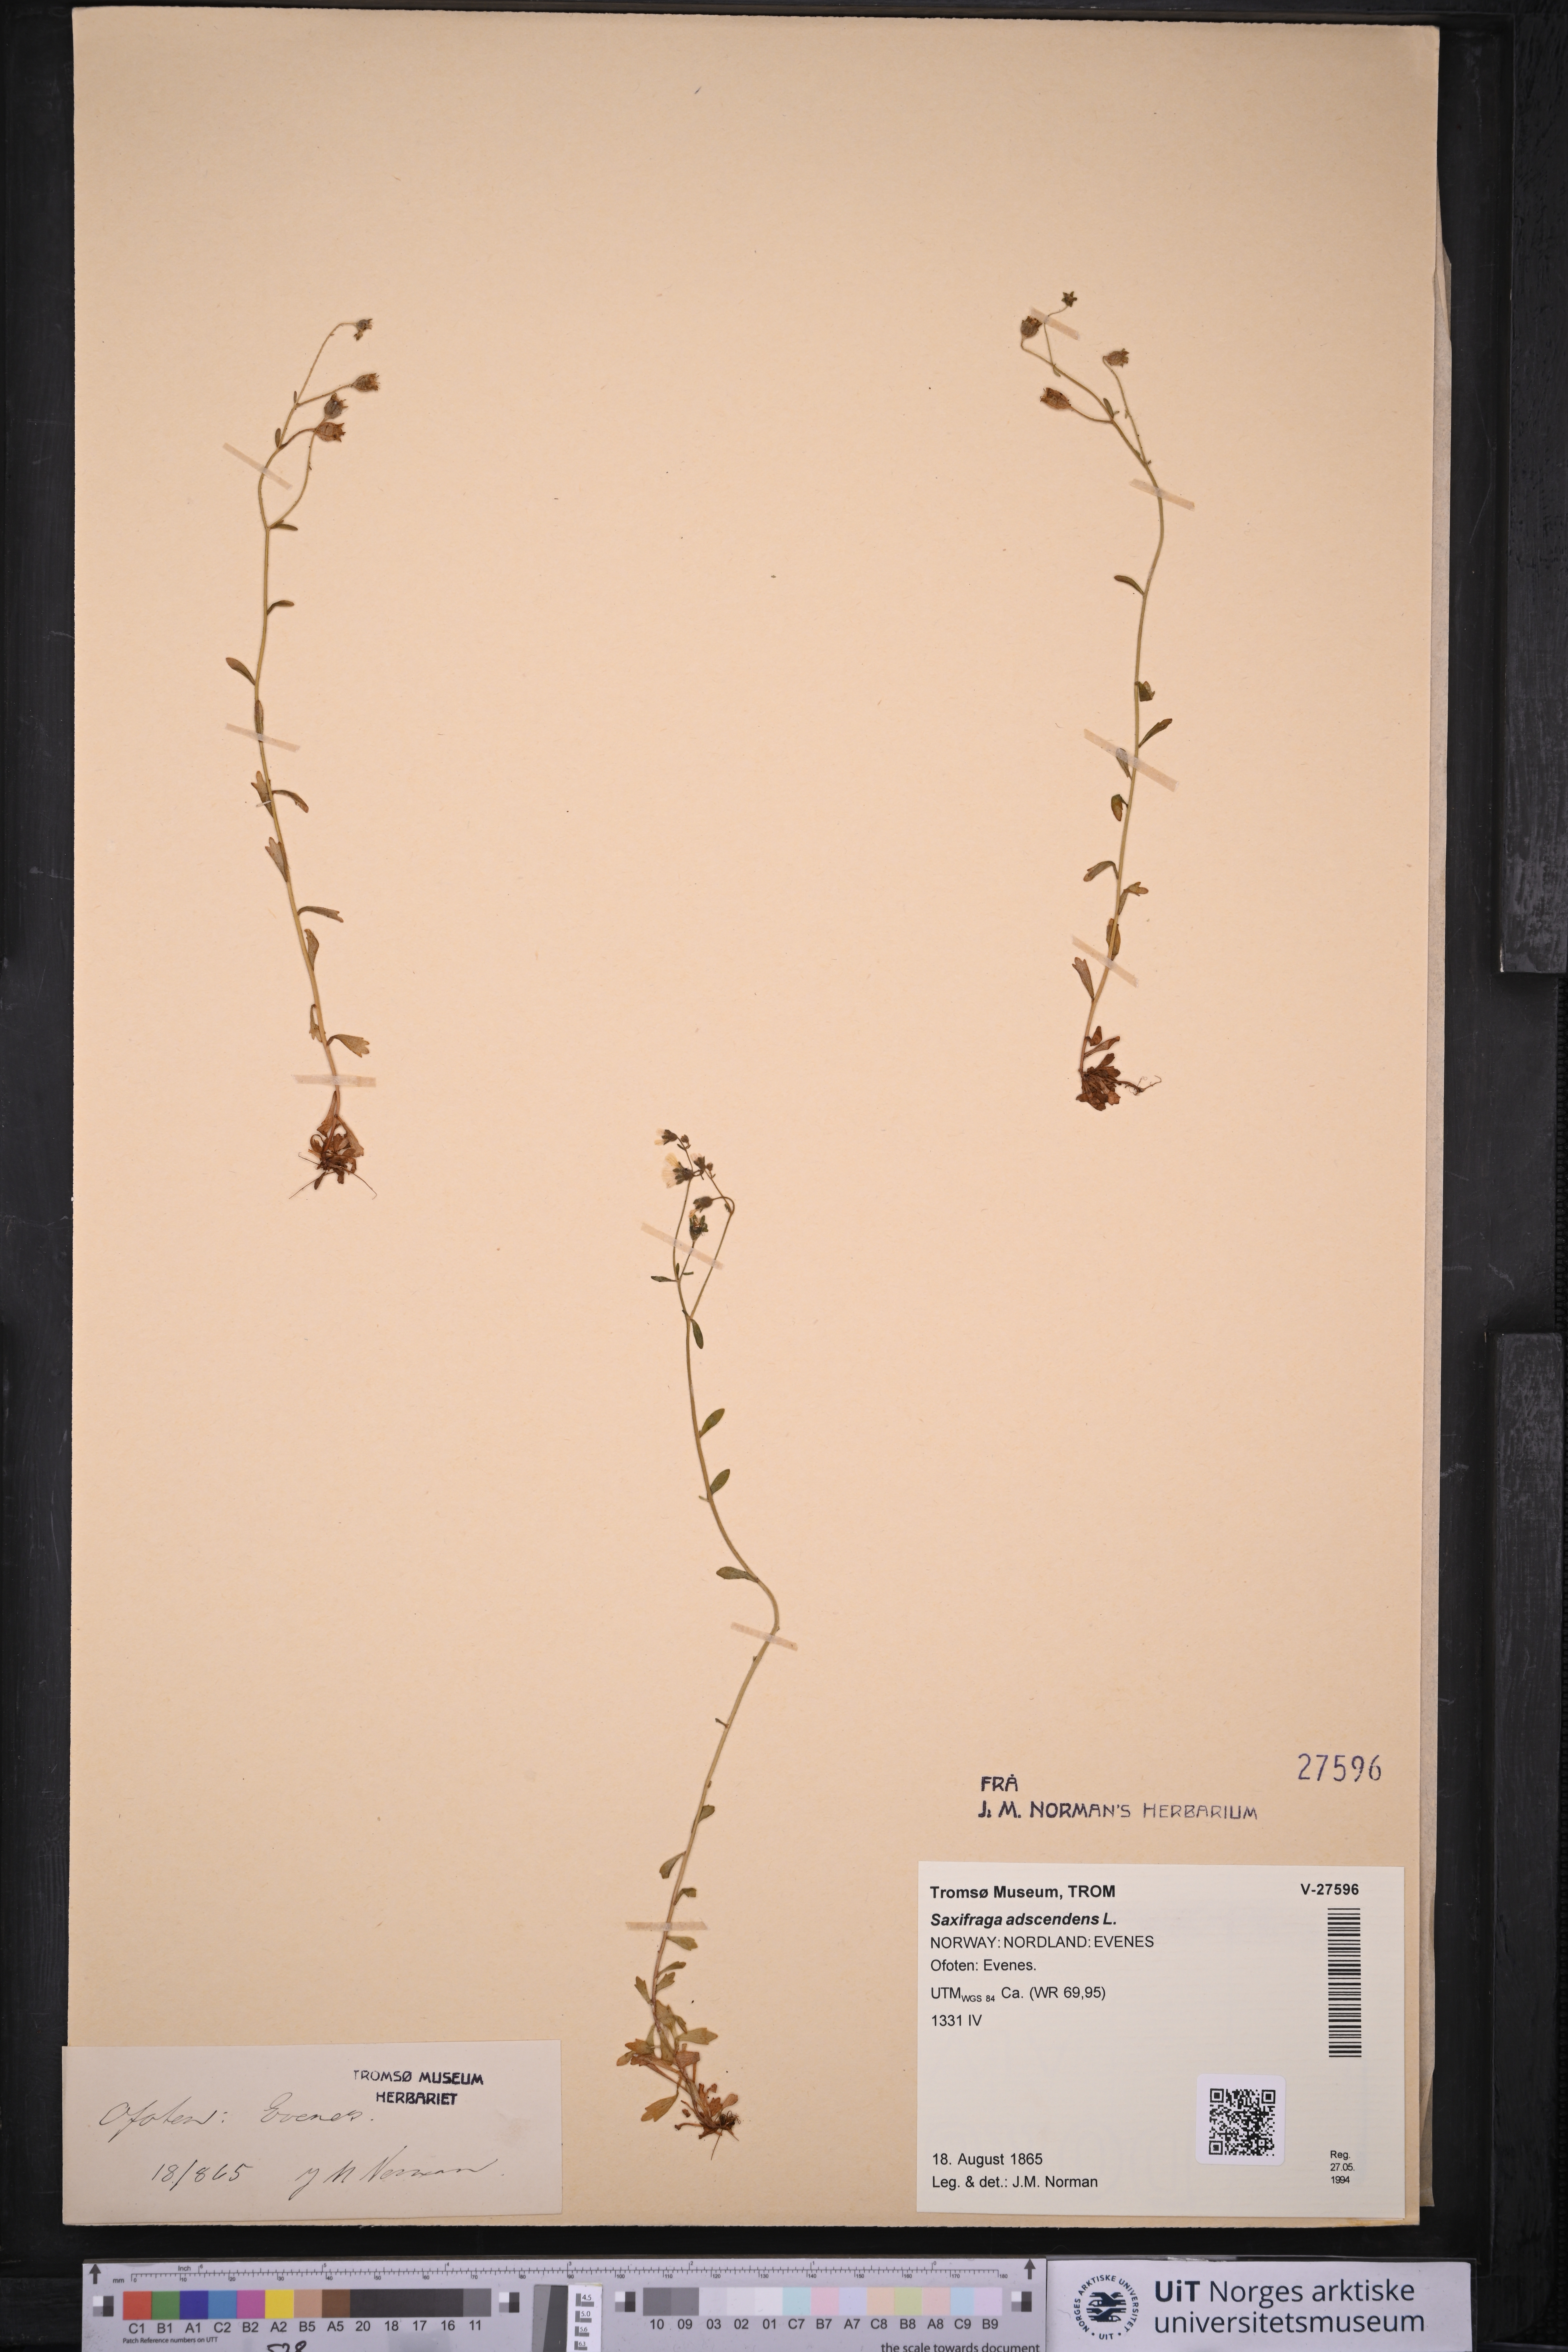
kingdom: Plantae
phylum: Tracheophyta
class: Magnoliopsida
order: Saxifragales
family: Saxifragaceae
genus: Saxifraga
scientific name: Saxifraga adscendens
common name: Ascending saxifrage
